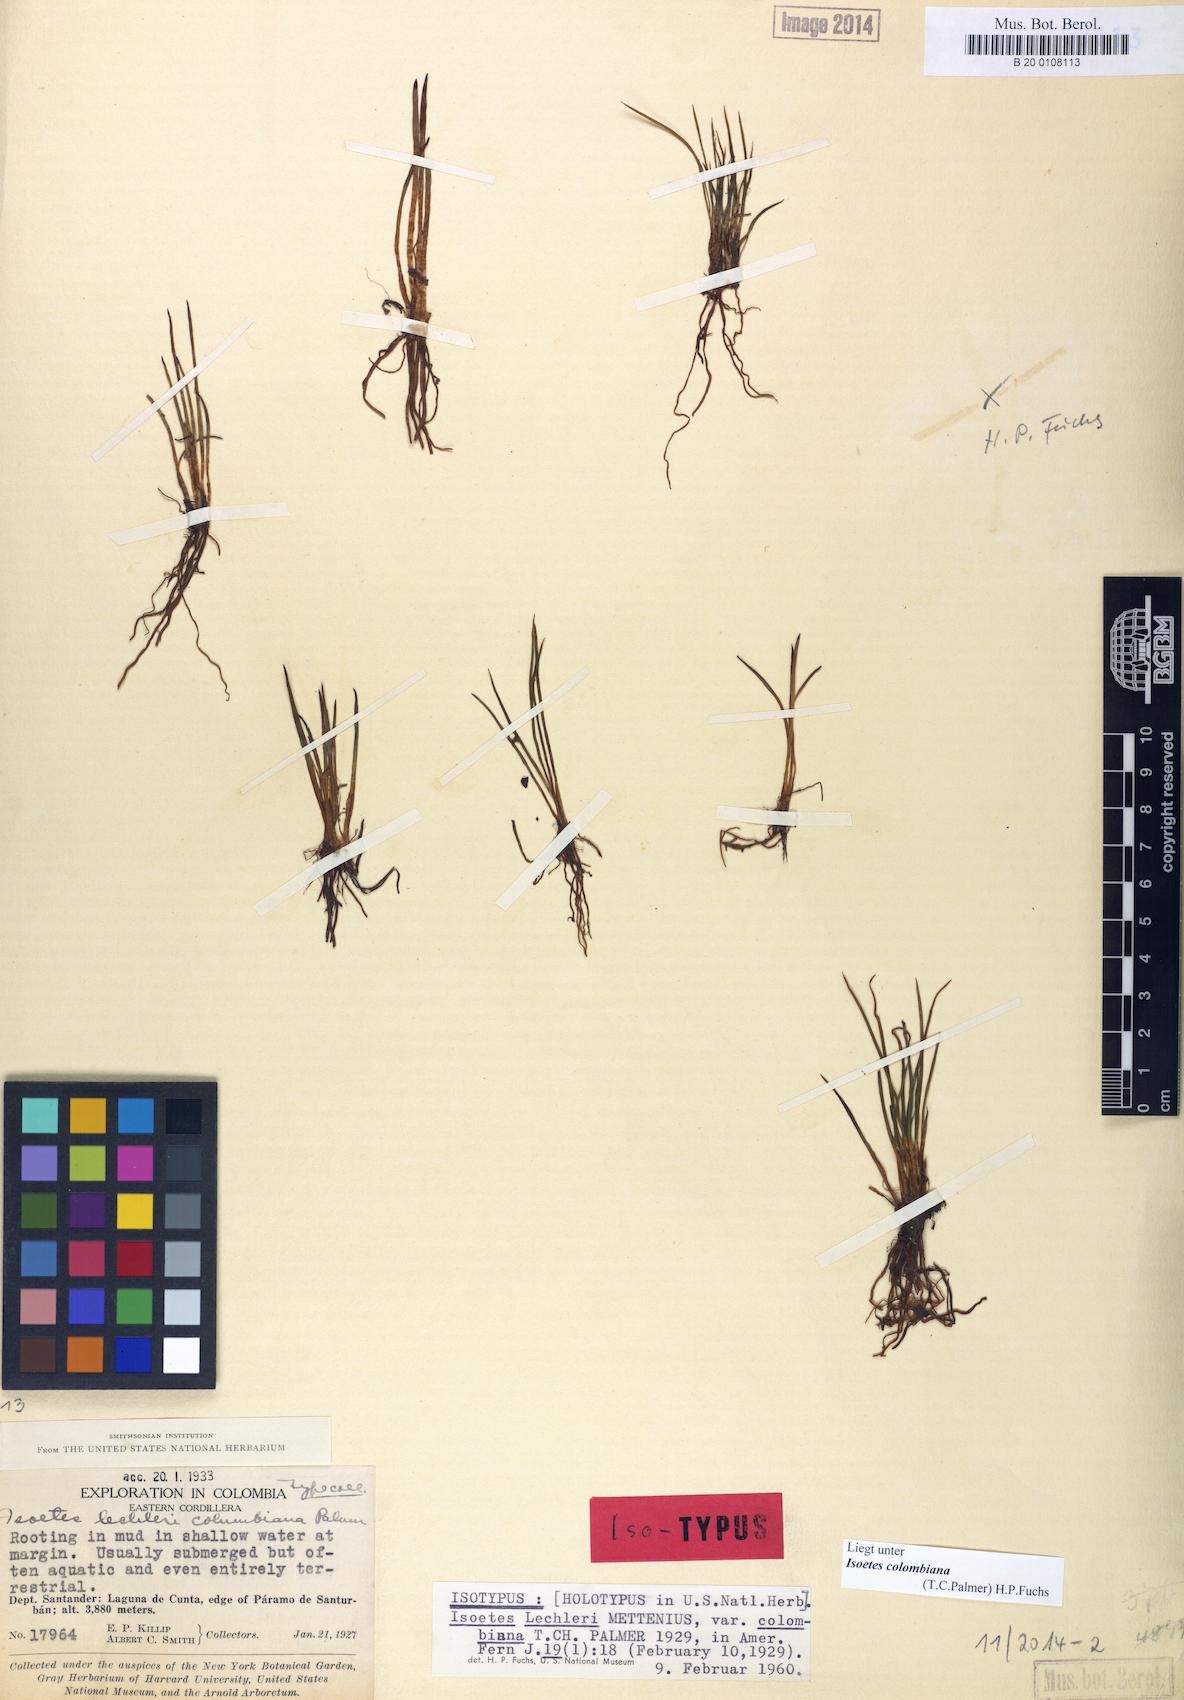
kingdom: Plantae
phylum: Tracheophyta
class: Lycopodiopsida
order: Isoetales
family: Isoetaceae
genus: Isoetes
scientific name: Isoetes karstenii
